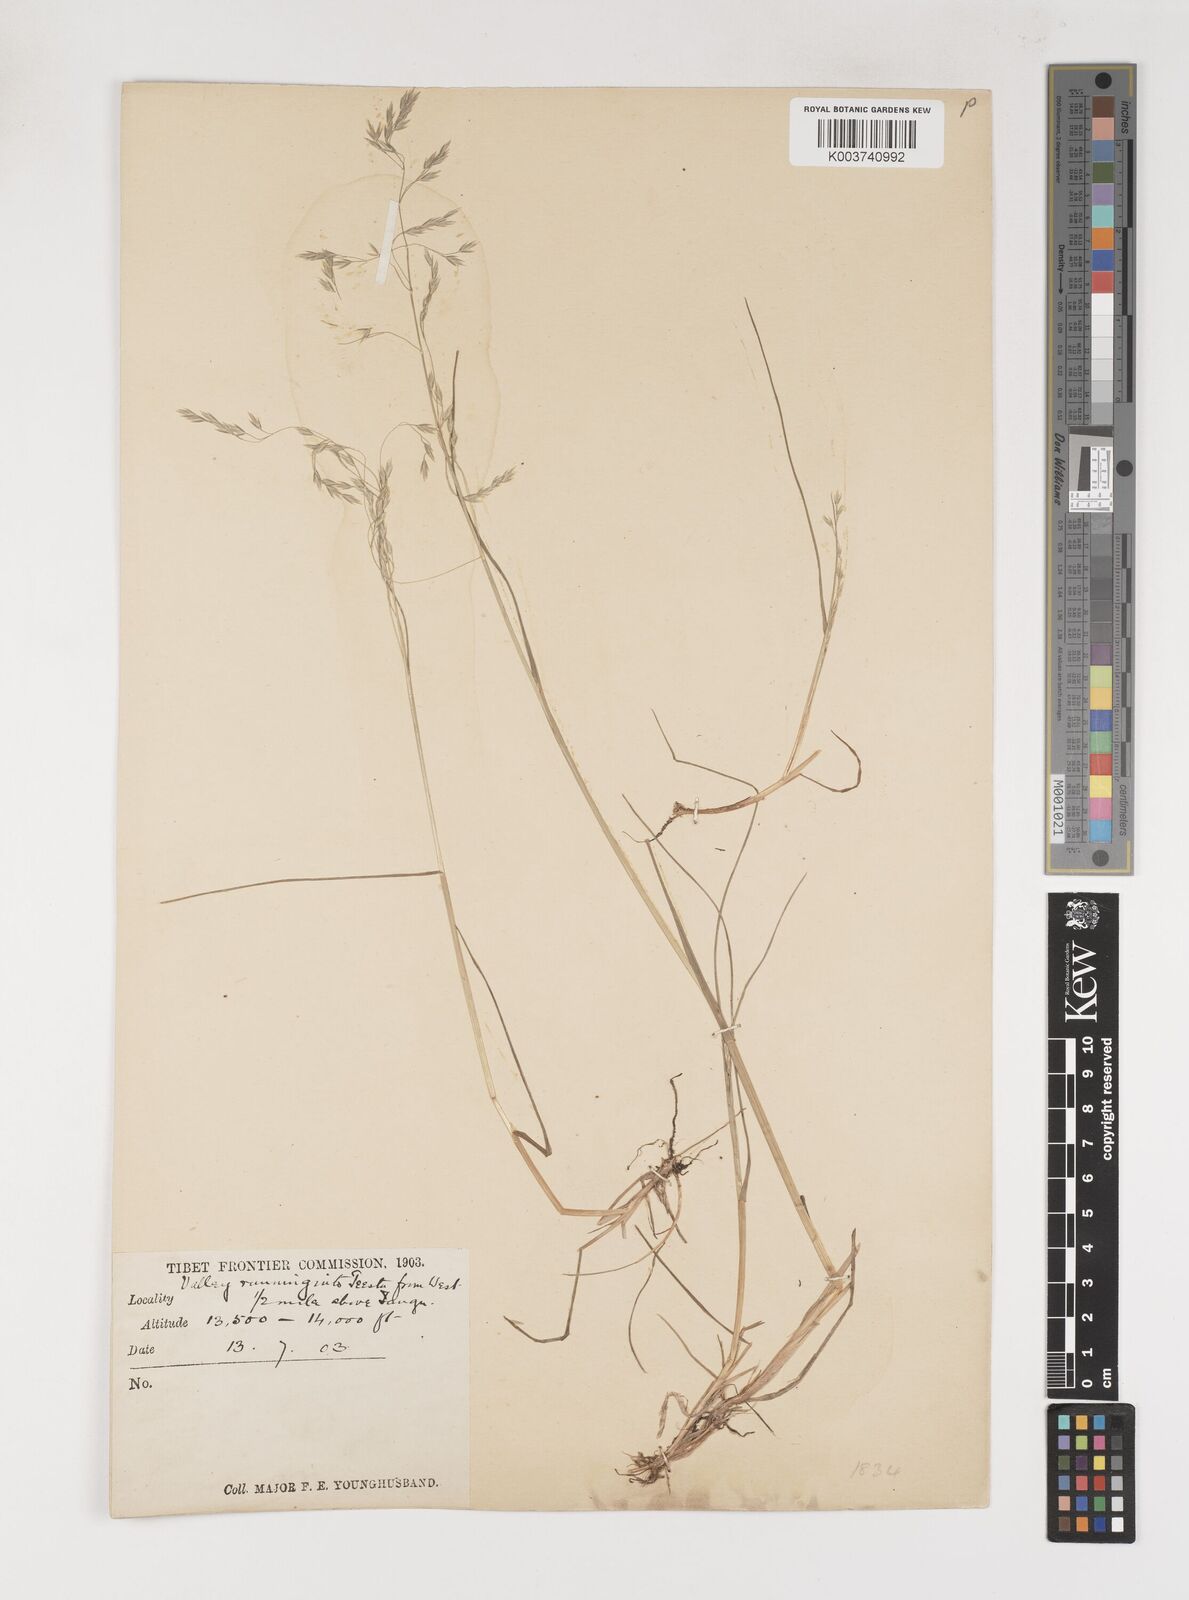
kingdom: Plantae
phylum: Tracheophyta
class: Liliopsida
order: Poales
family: Poaceae
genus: Poa
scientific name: Poa nitidespiculata
